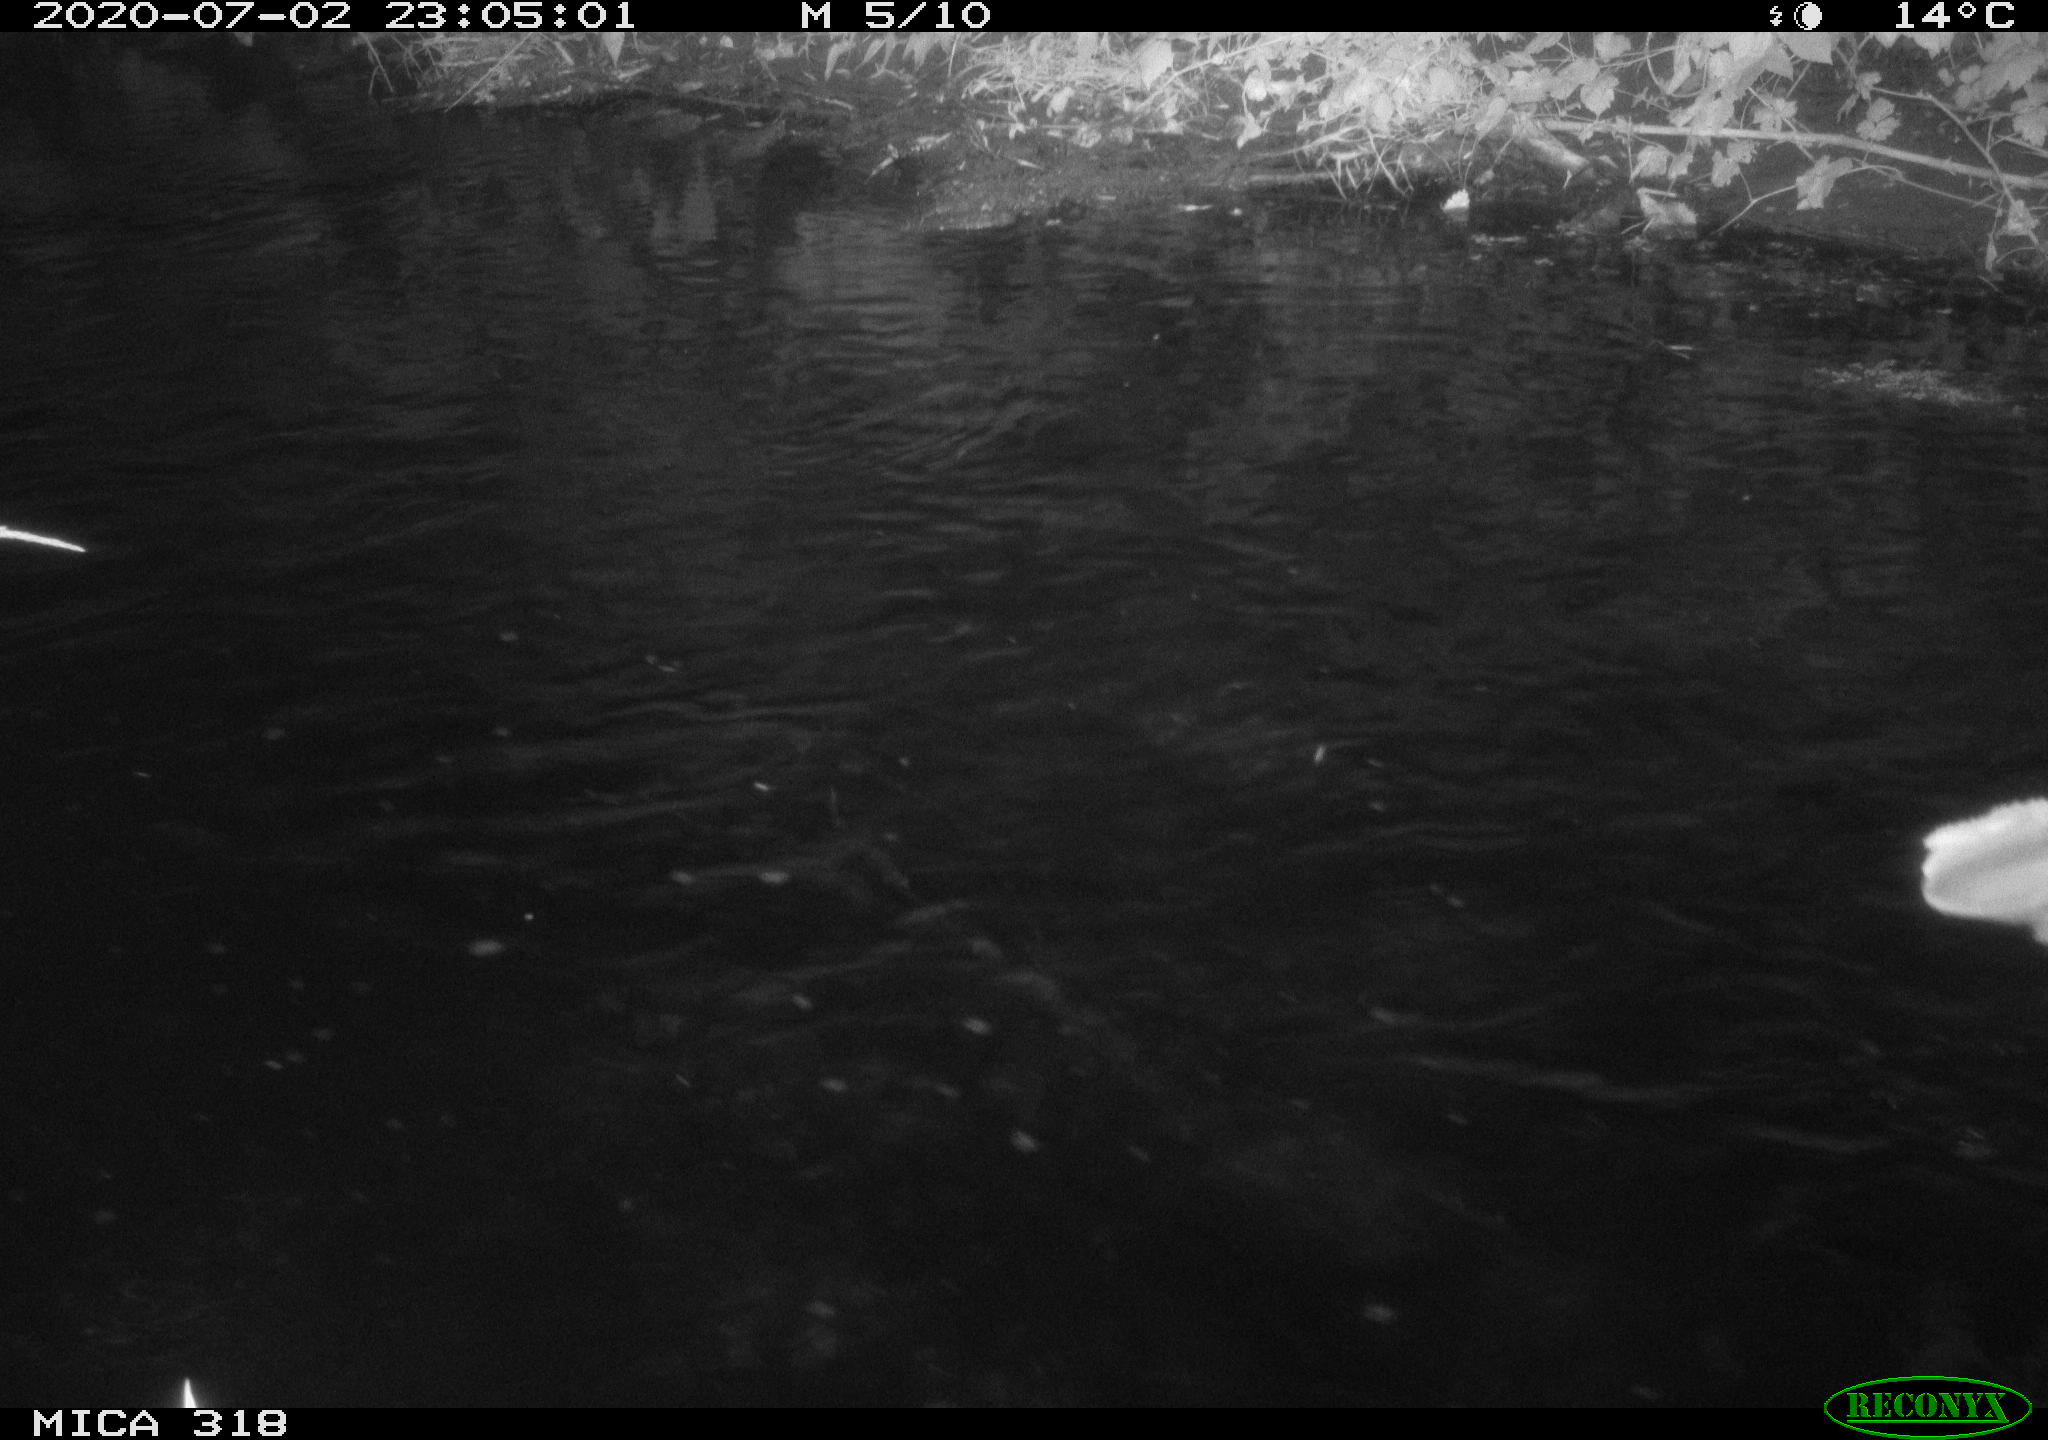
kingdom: Animalia
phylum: Chordata
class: Aves
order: Pelecaniformes
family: Ardeidae
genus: Ardea
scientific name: Ardea cinerea
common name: Grey heron
